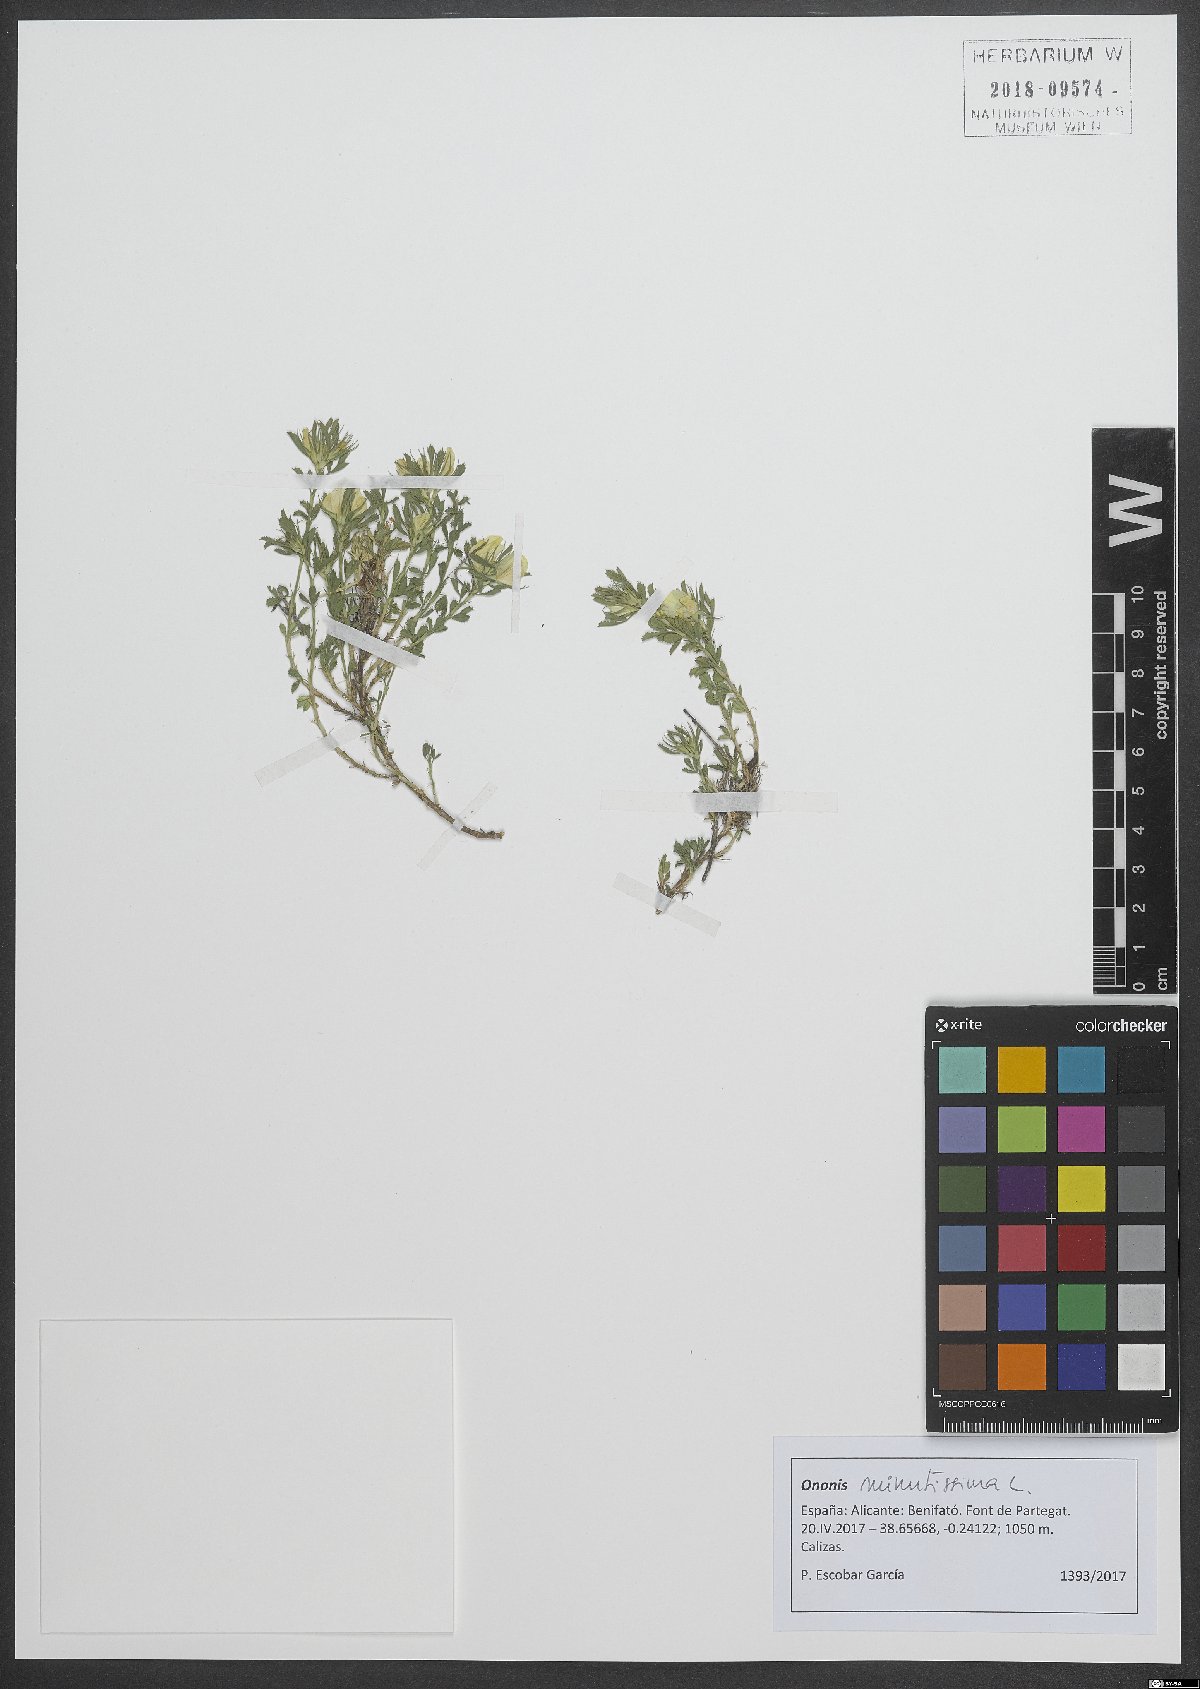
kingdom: Plantae
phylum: Tracheophyta
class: Magnoliopsida
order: Fabales
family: Fabaceae
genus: Ononis
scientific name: Ononis minutissima
